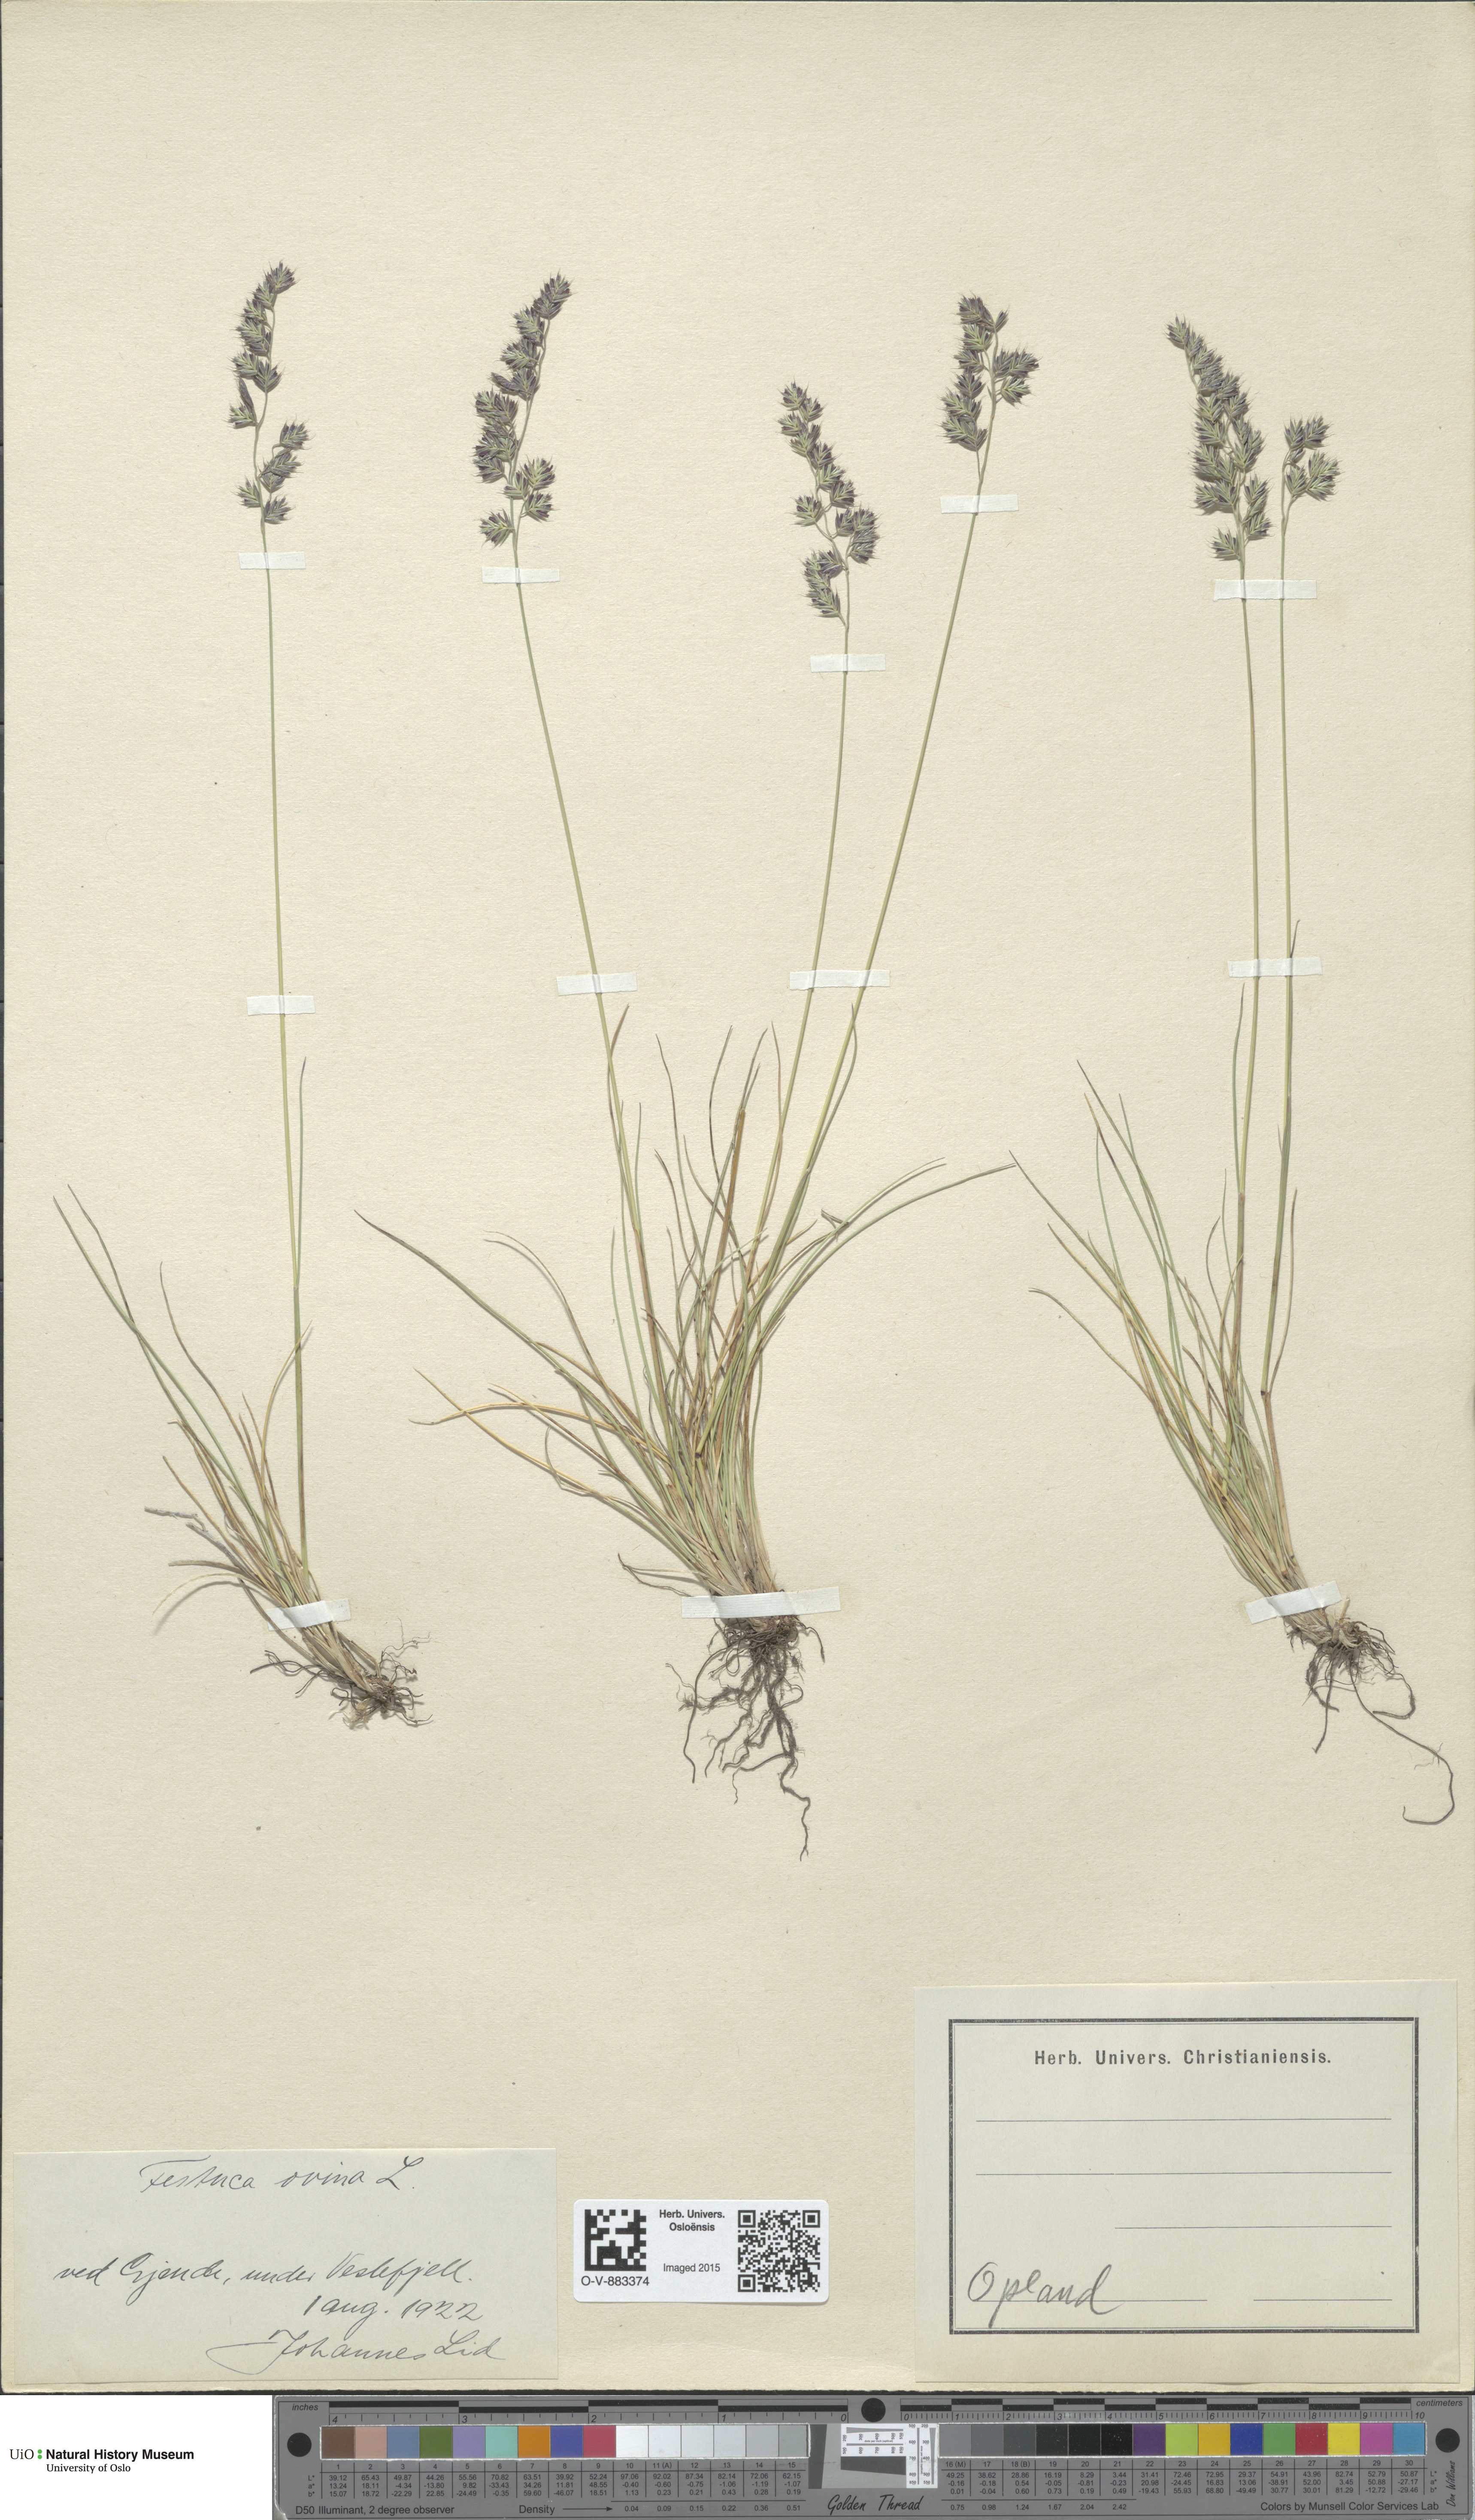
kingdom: Plantae
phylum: Tracheophyta
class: Liliopsida
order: Poales
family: Poaceae
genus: Festuca
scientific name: Festuca ovina
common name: Sheep fescue
